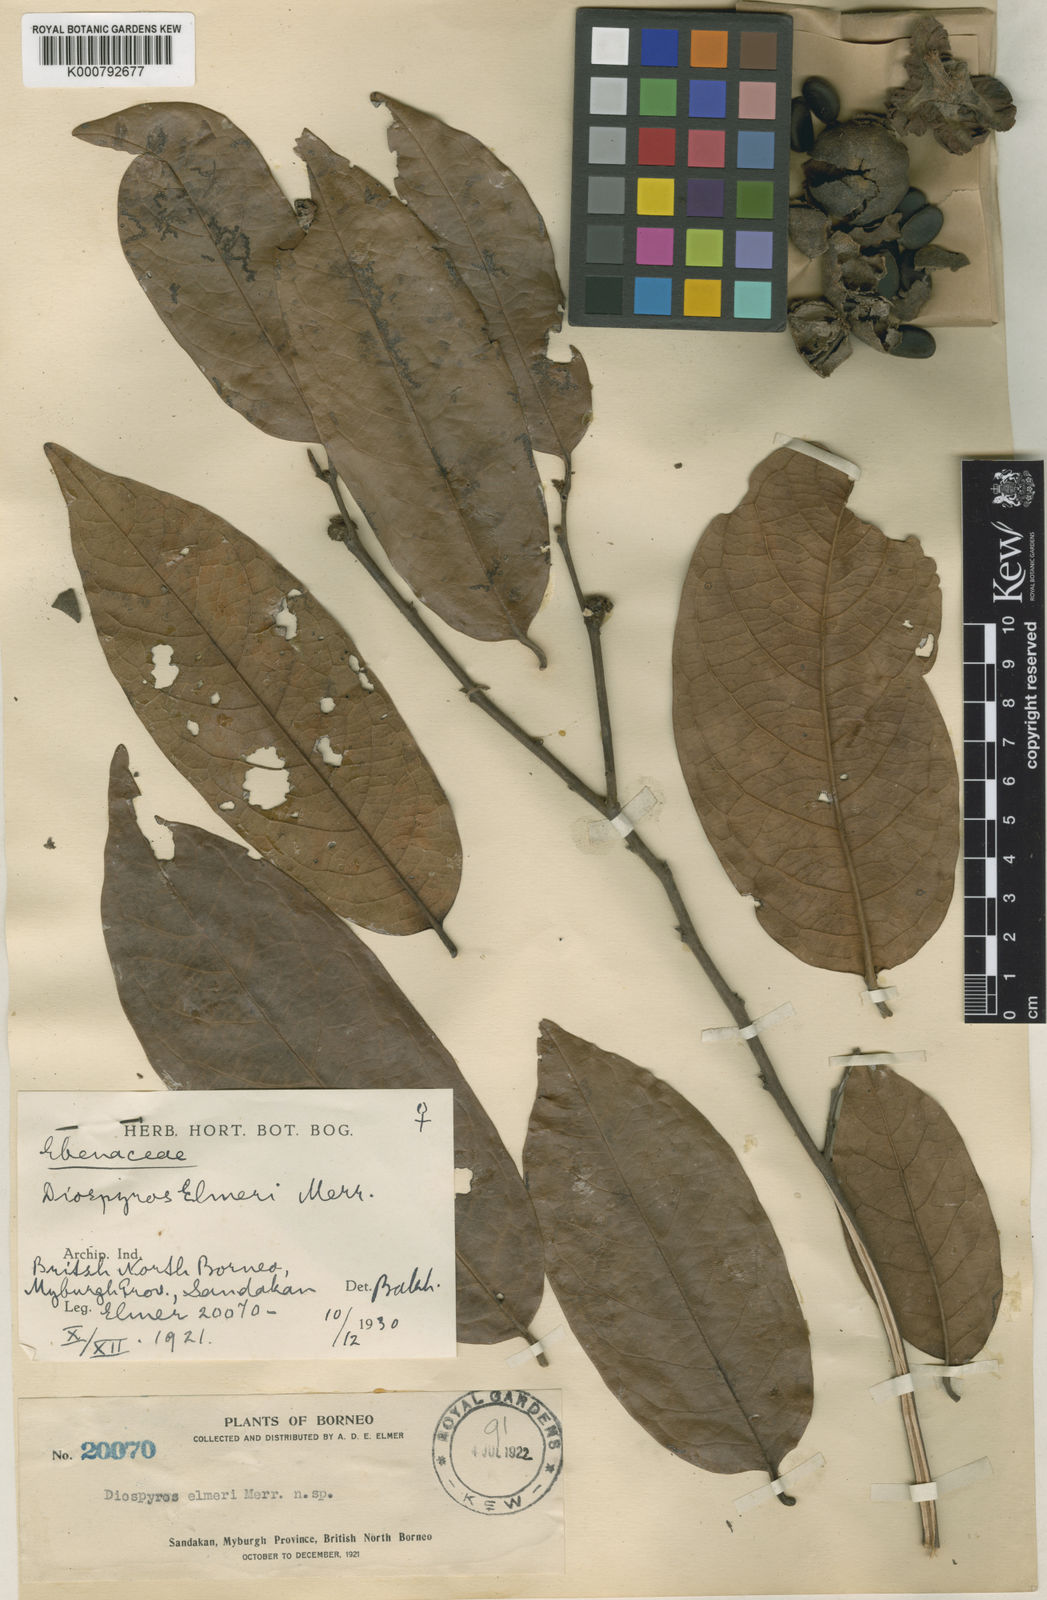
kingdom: Plantae
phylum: Tracheophyta
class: Magnoliopsida
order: Ericales
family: Ebenaceae
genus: Diospyros
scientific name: Diospyros oblonga
